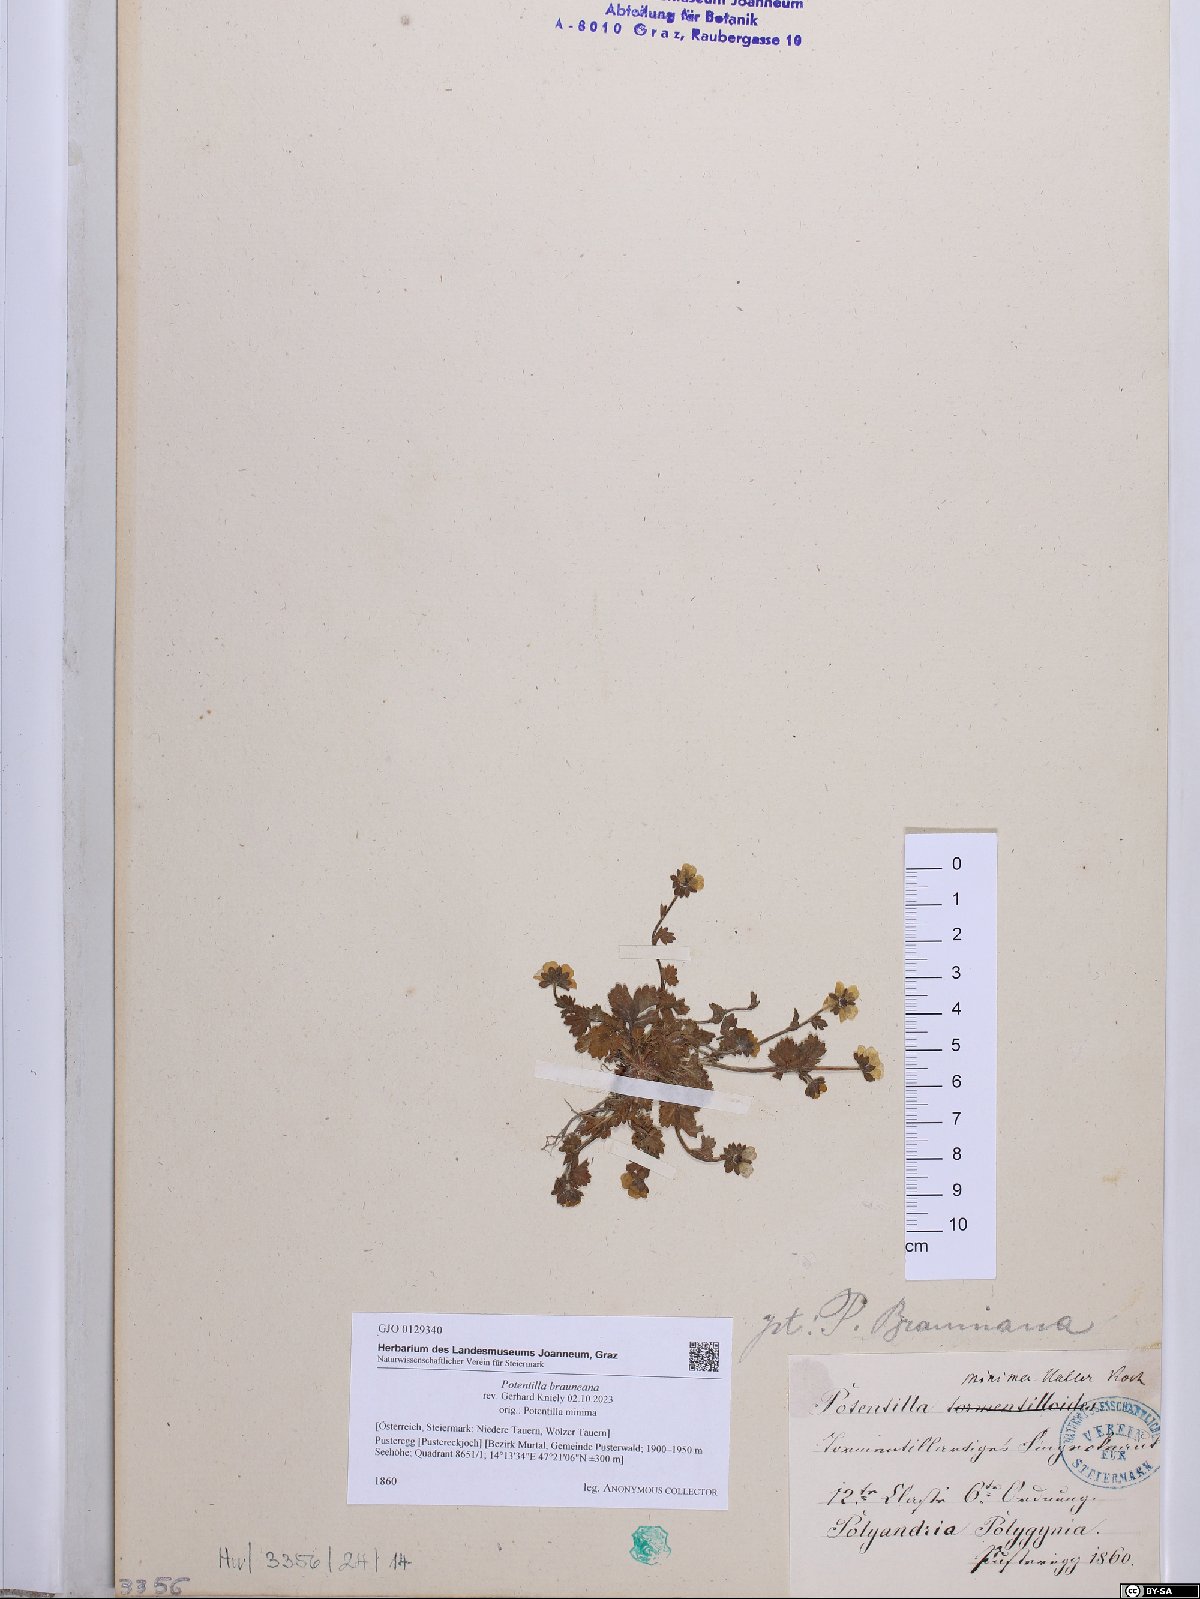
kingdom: Plantae
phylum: Tracheophyta
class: Magnoliopsida
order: Rosales
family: Rosaceae
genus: Potentilla
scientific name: Potentilla brauneana
